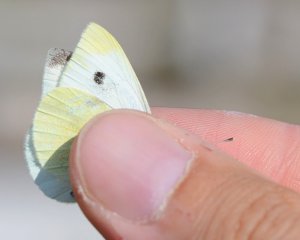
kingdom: Animalia
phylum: Arthropoda
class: Insecta
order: Lepidoptera
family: Pieridae
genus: Pieris
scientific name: Pieris rapae
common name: Cabbage White
